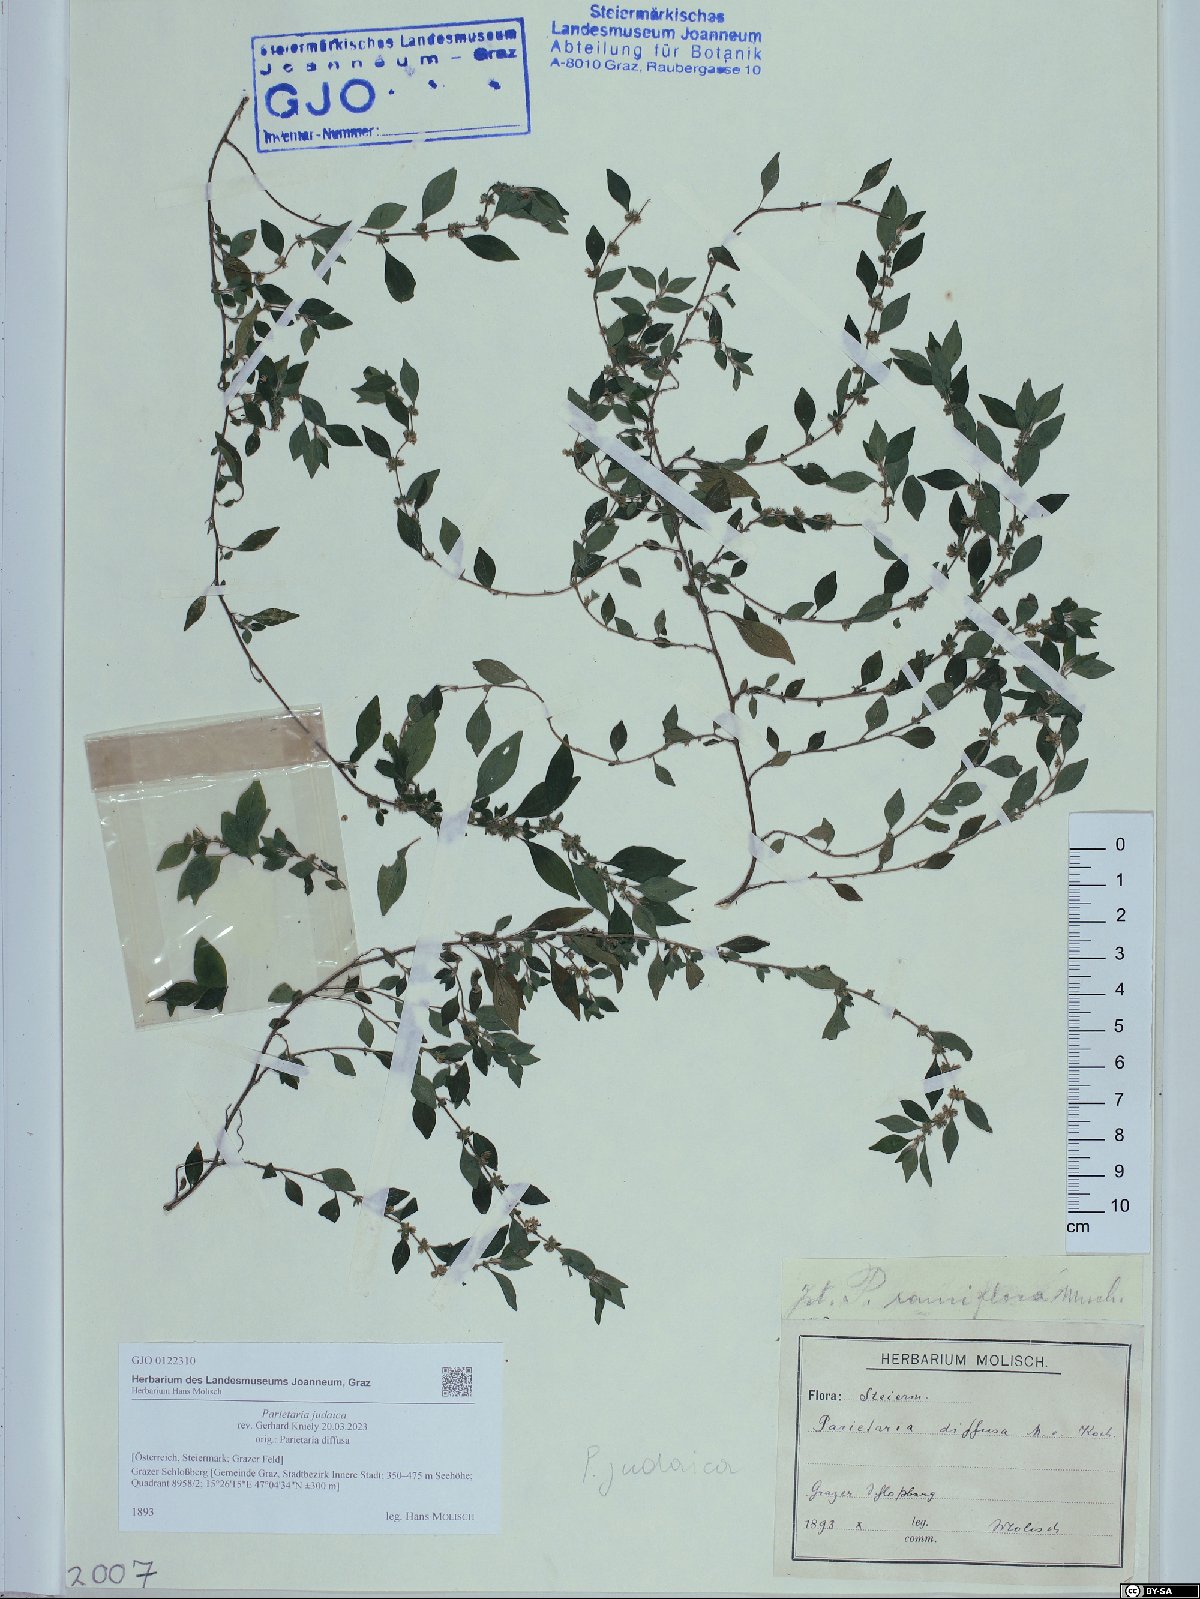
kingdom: Plantae
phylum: Tracheophyta
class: Magnoliopsida
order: Rosales
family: Urticaceae
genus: Parietaria
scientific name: Parietaria judaica
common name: Pellitory-of-the-wall
